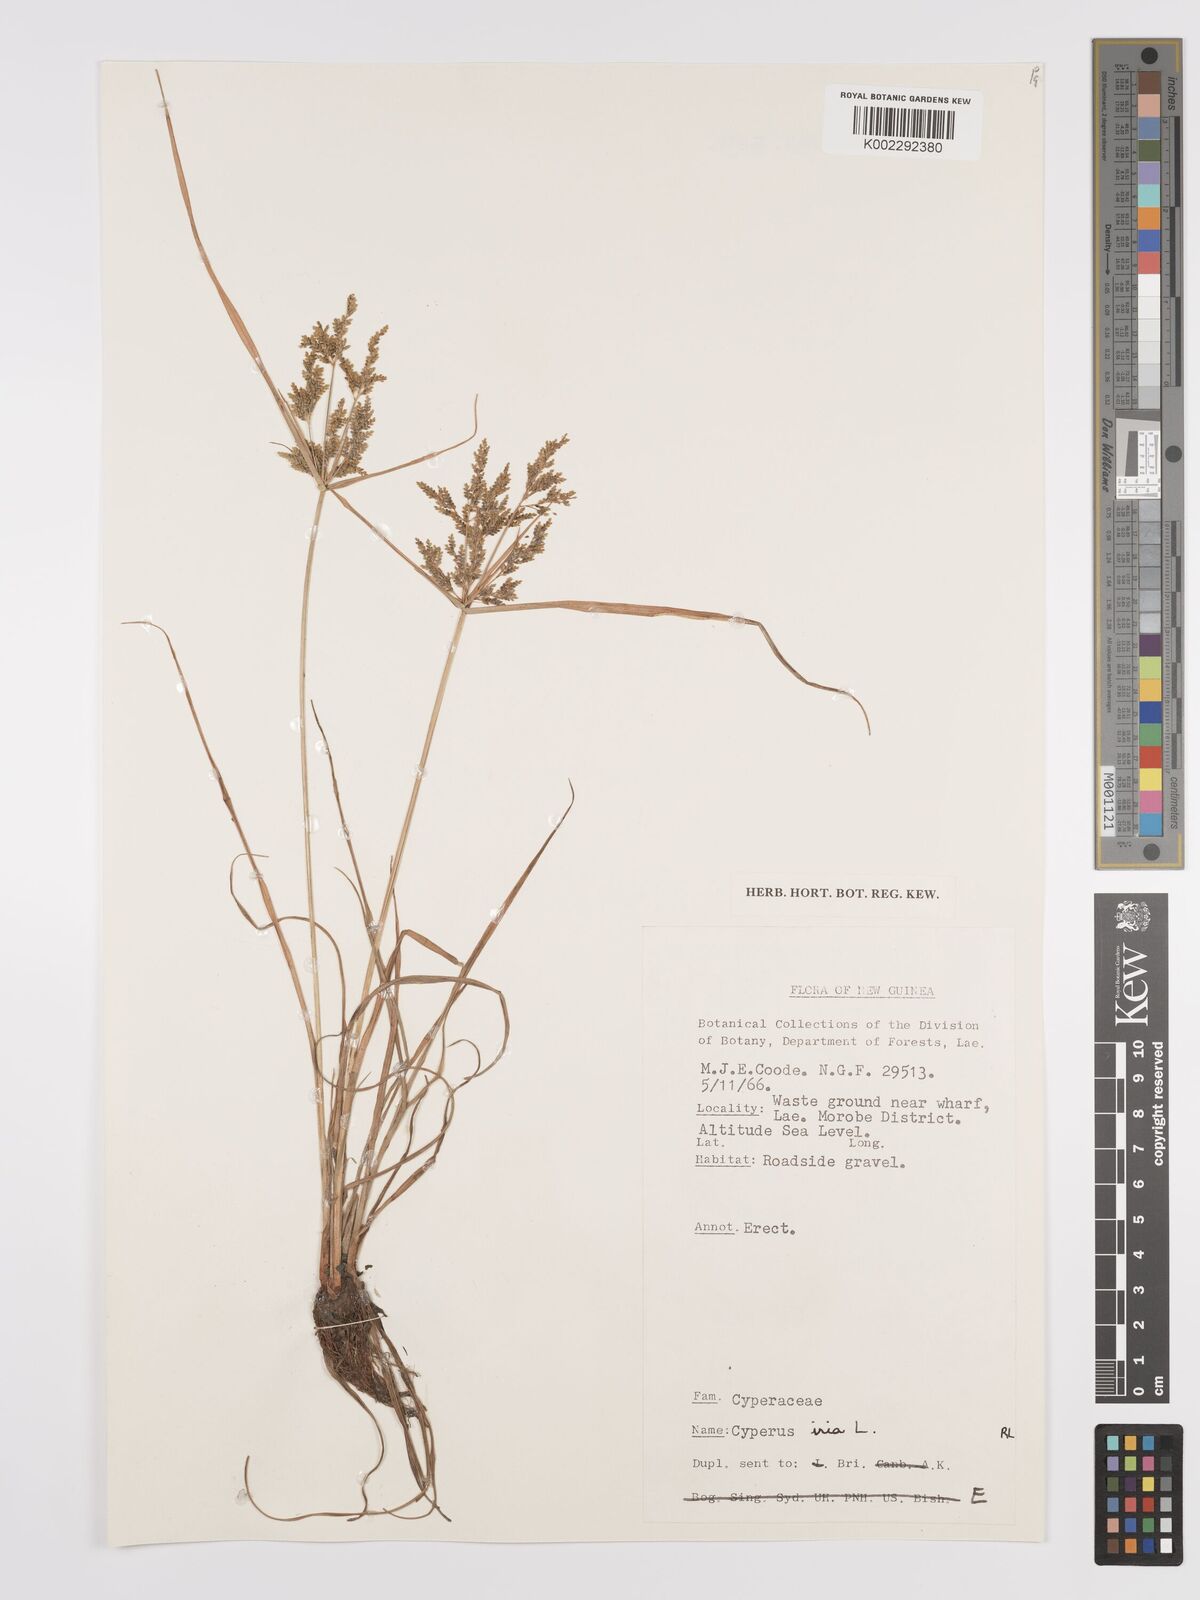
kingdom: Plantae
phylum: Tracheophyta
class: Liliopsida
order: Poales
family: Cyperaceae
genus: Cyperus
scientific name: Cyperus iria
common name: Ricefield flatsedge
